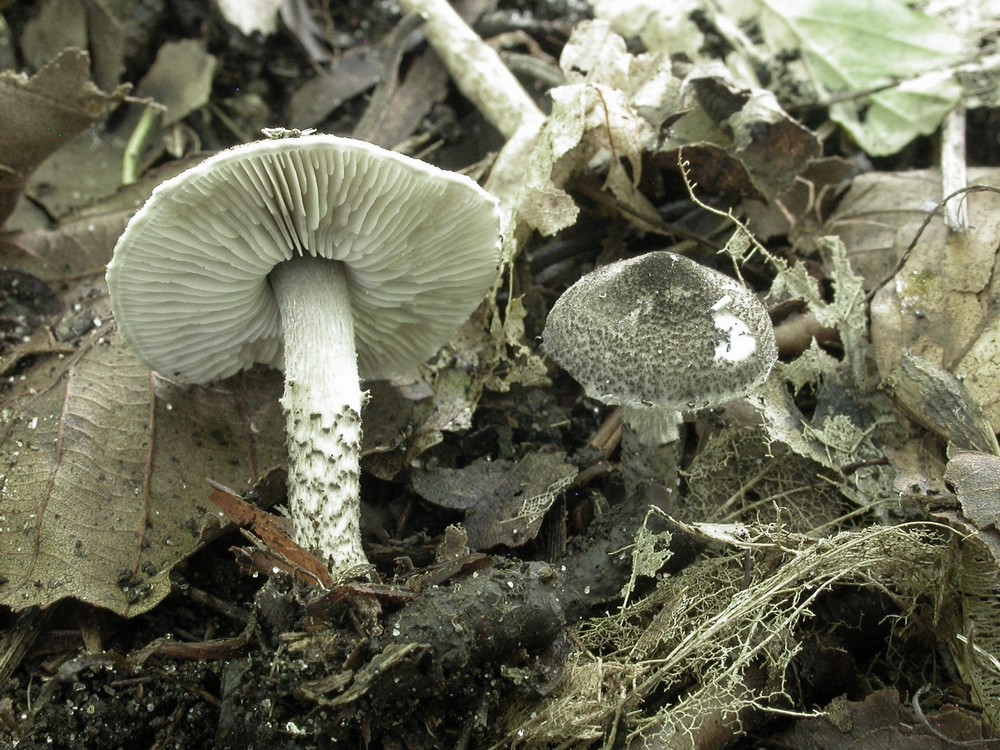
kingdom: Fungi
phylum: Basidiomycota
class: Agaricomycetes
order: Agaricales
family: Agaricaceae
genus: Lepiota
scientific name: Lepiota griseovirens
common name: grågrøn parasolhat
